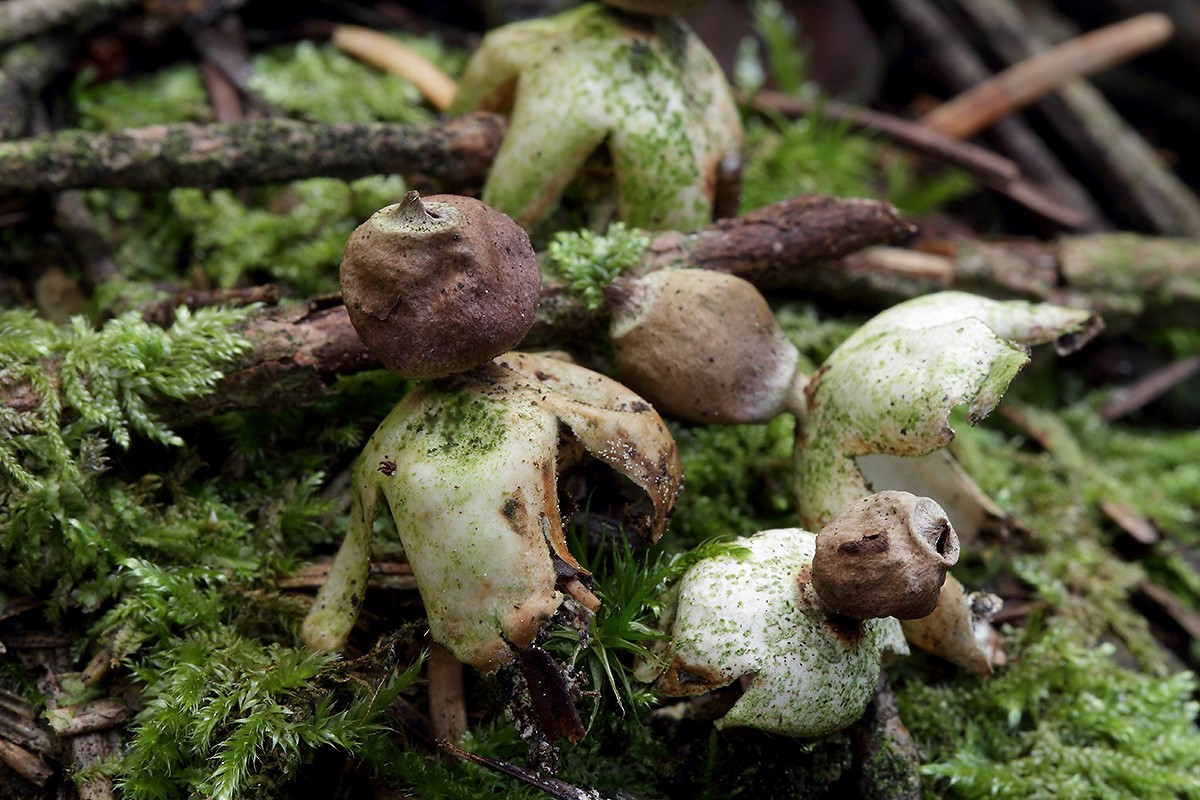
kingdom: Fungi
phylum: Basidiomycota
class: Agaricomycetes
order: Geastrales
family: Geastraceae
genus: Geastrum
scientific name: Geastrum quadrifidum
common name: firfliget stjernebold
